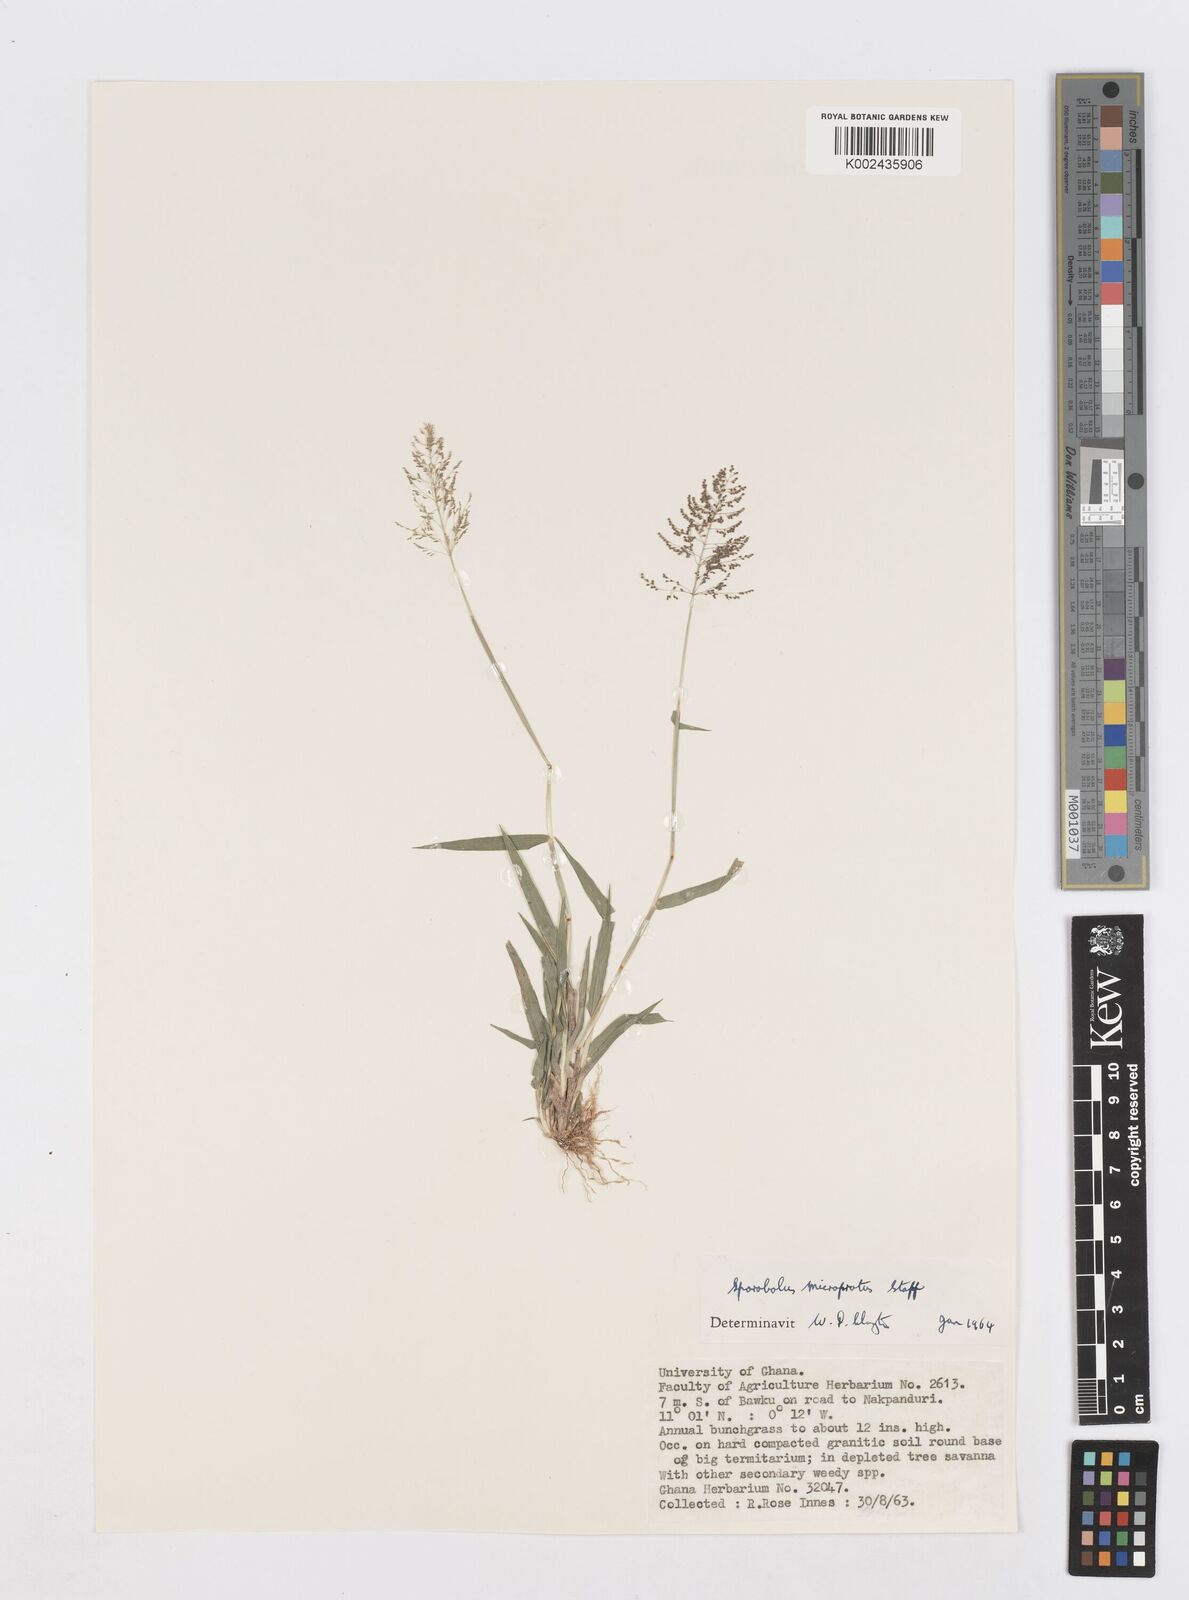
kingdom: Plantae
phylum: Tracheophyta
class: Liliopsida
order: Poales
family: Poaceae
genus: Sporobolus
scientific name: Sporobolus microprotus
